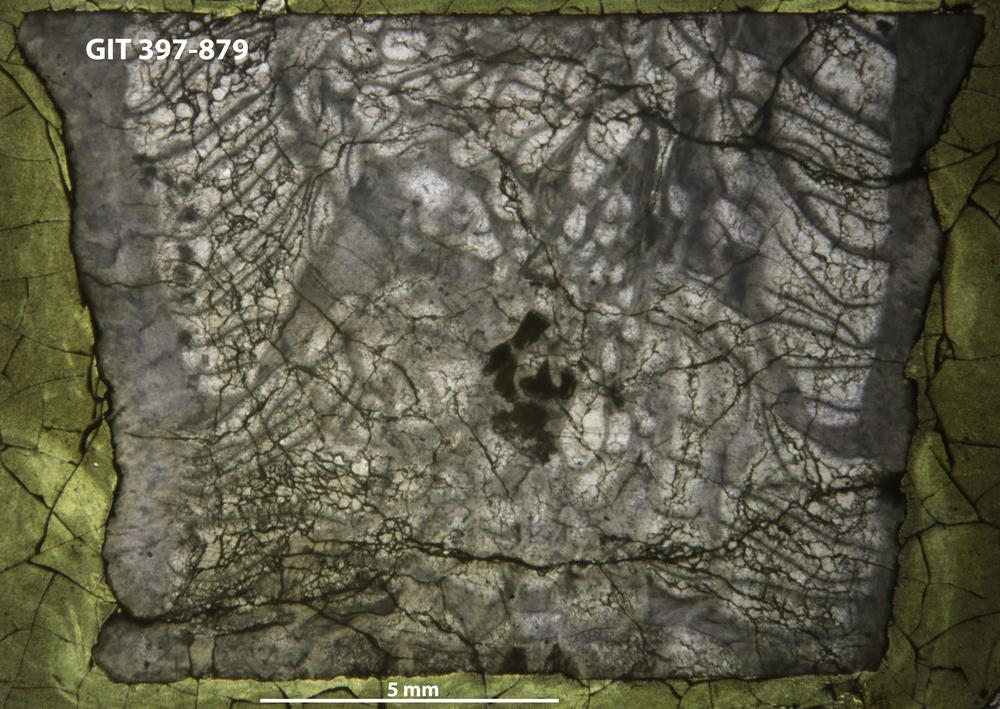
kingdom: Animalia
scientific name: Animalia
